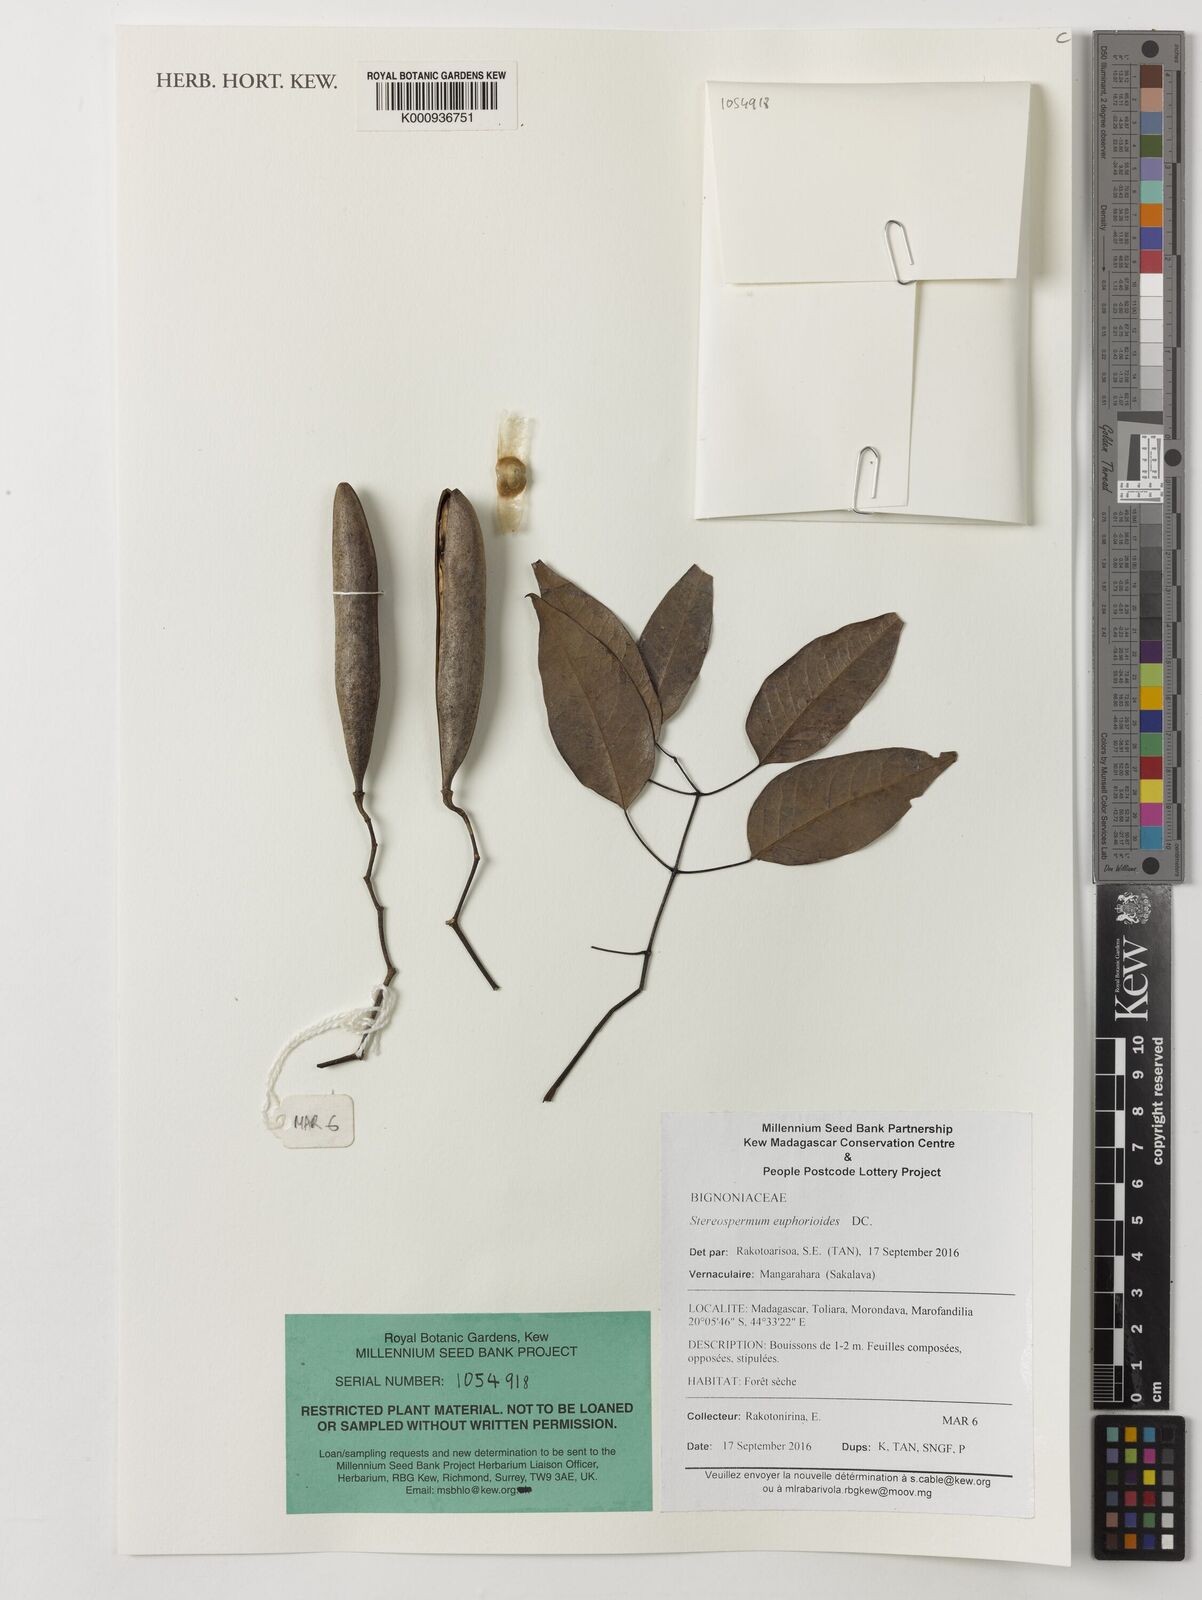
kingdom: Plantae
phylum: Tracheophyta
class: Magnoliopsida
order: Lamiales
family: Bignoniaceae
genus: Stereospermum
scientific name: Stereospermum euphorioides
